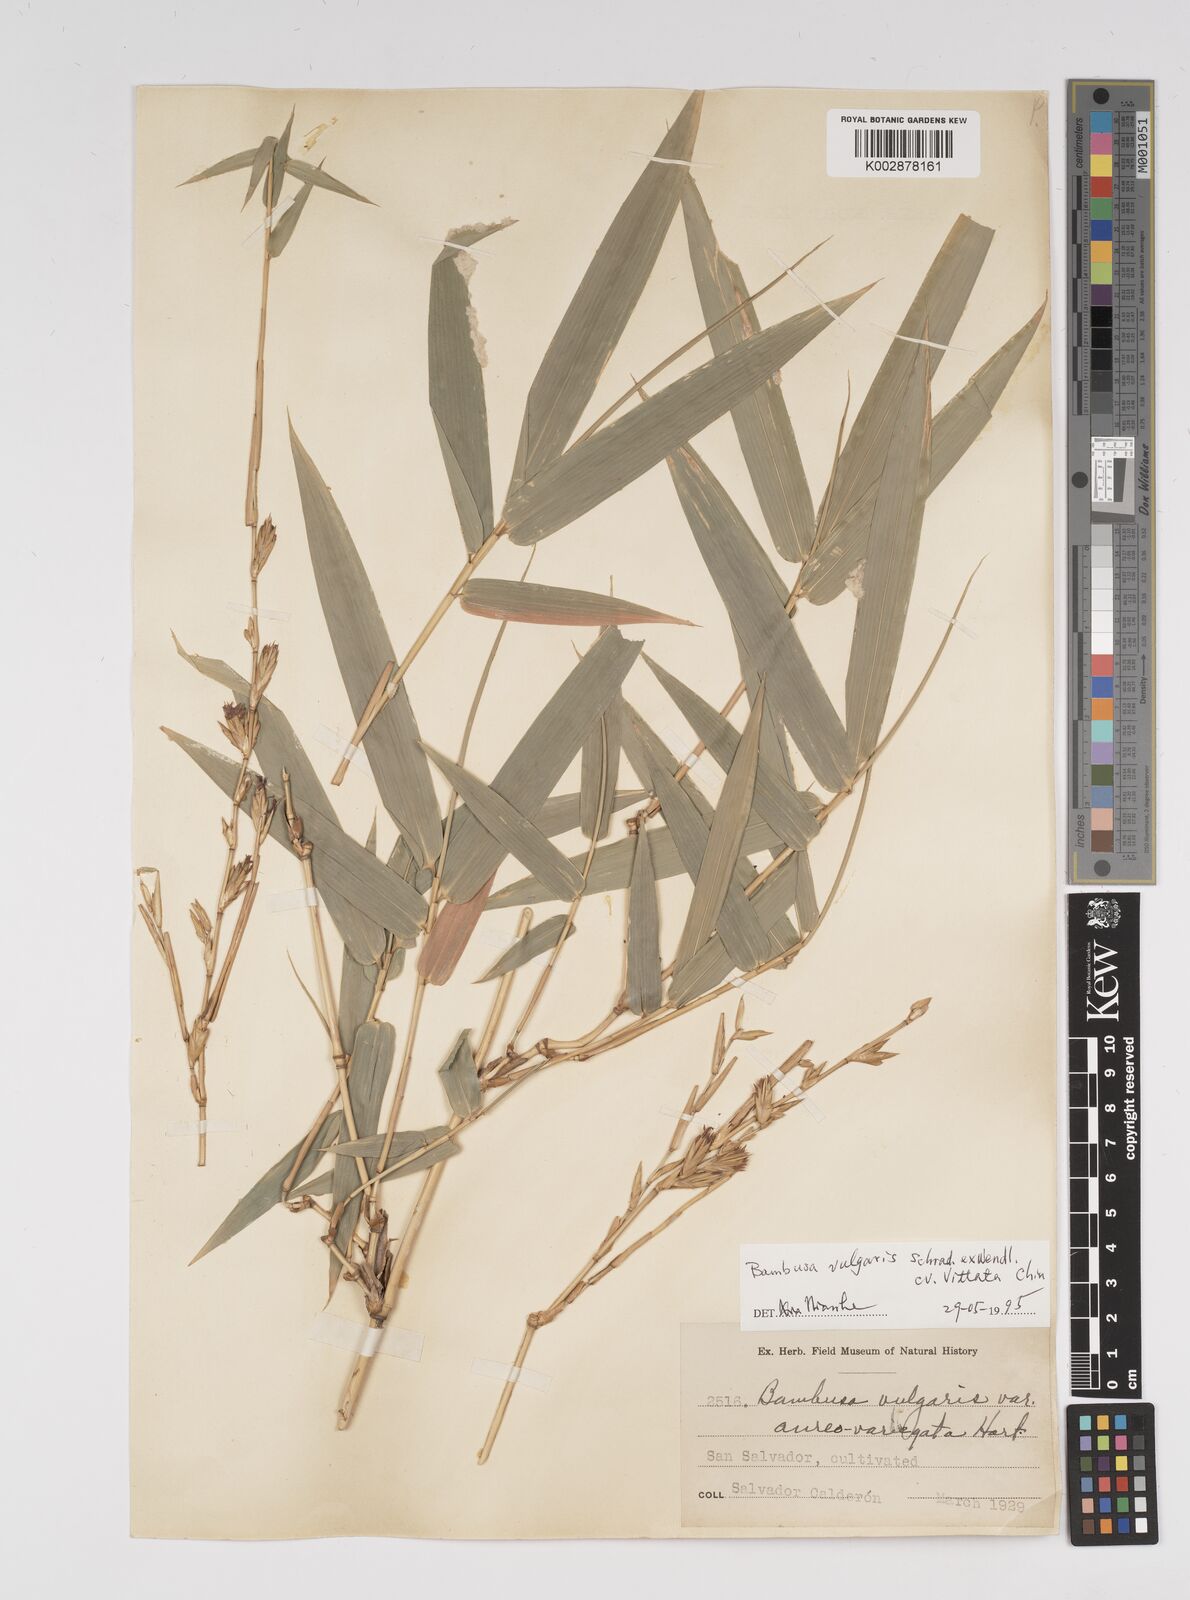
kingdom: Plantae
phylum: Tracheophyta
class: Liliopsida
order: Poales
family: Poaceae
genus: Bambusa
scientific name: Bambusa
